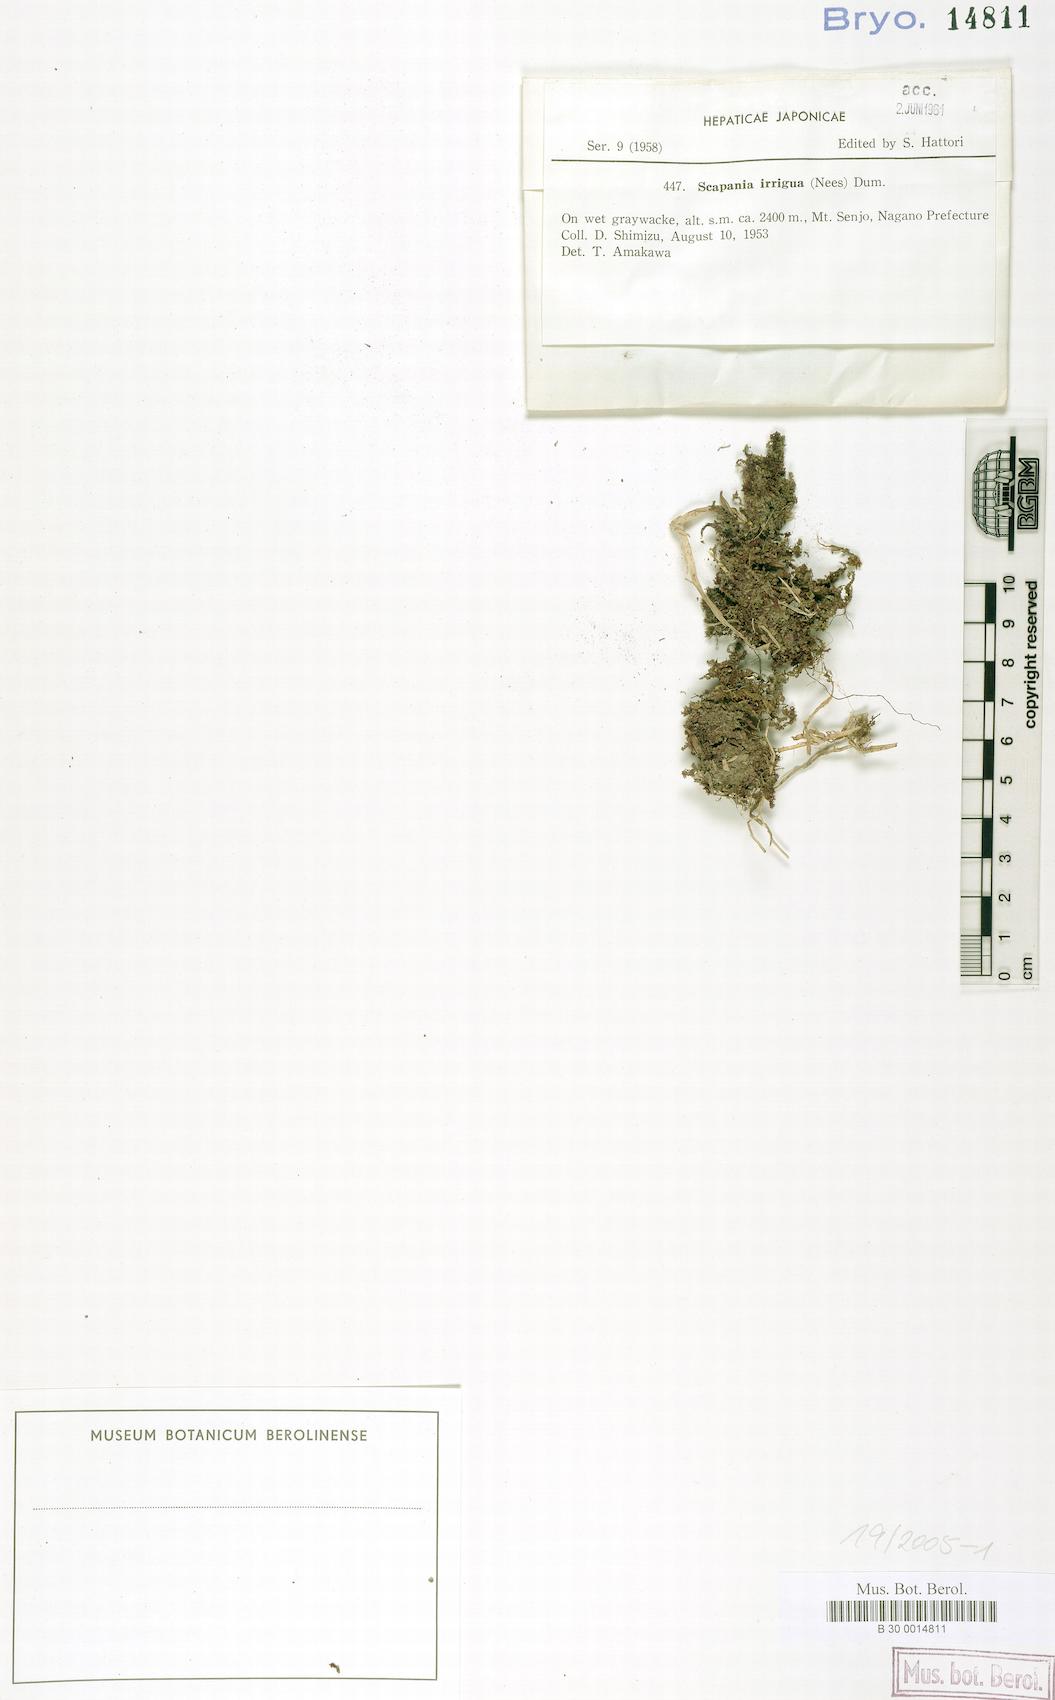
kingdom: Plantae
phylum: Marchantiophyta
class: Jungermanniopsida
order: Jungermanniales
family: Scapaniaceae
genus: Scapania
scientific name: Scapania irrigua
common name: Heath earwort
